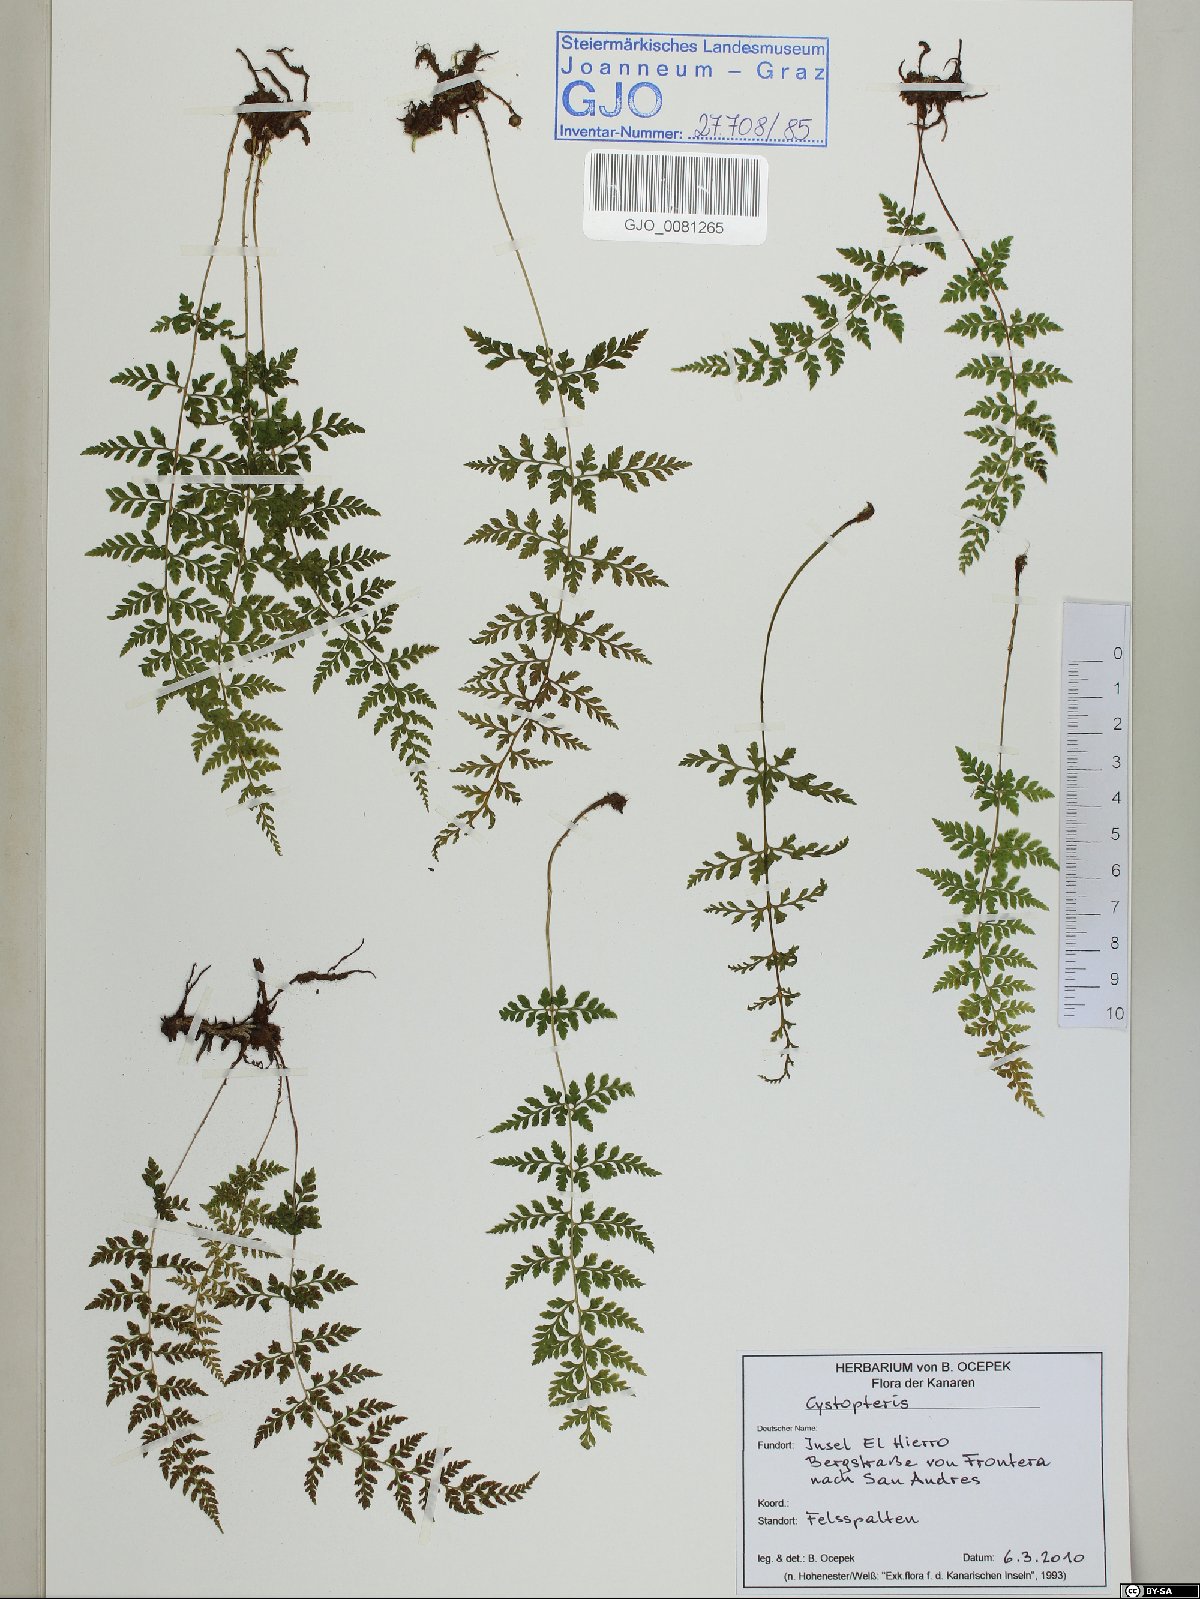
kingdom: Plantae
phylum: Tracheophyta
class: Polypodiopsida
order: Polypodiales
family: Cystopteridaceae
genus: Cystopteris
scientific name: Cystopteris
